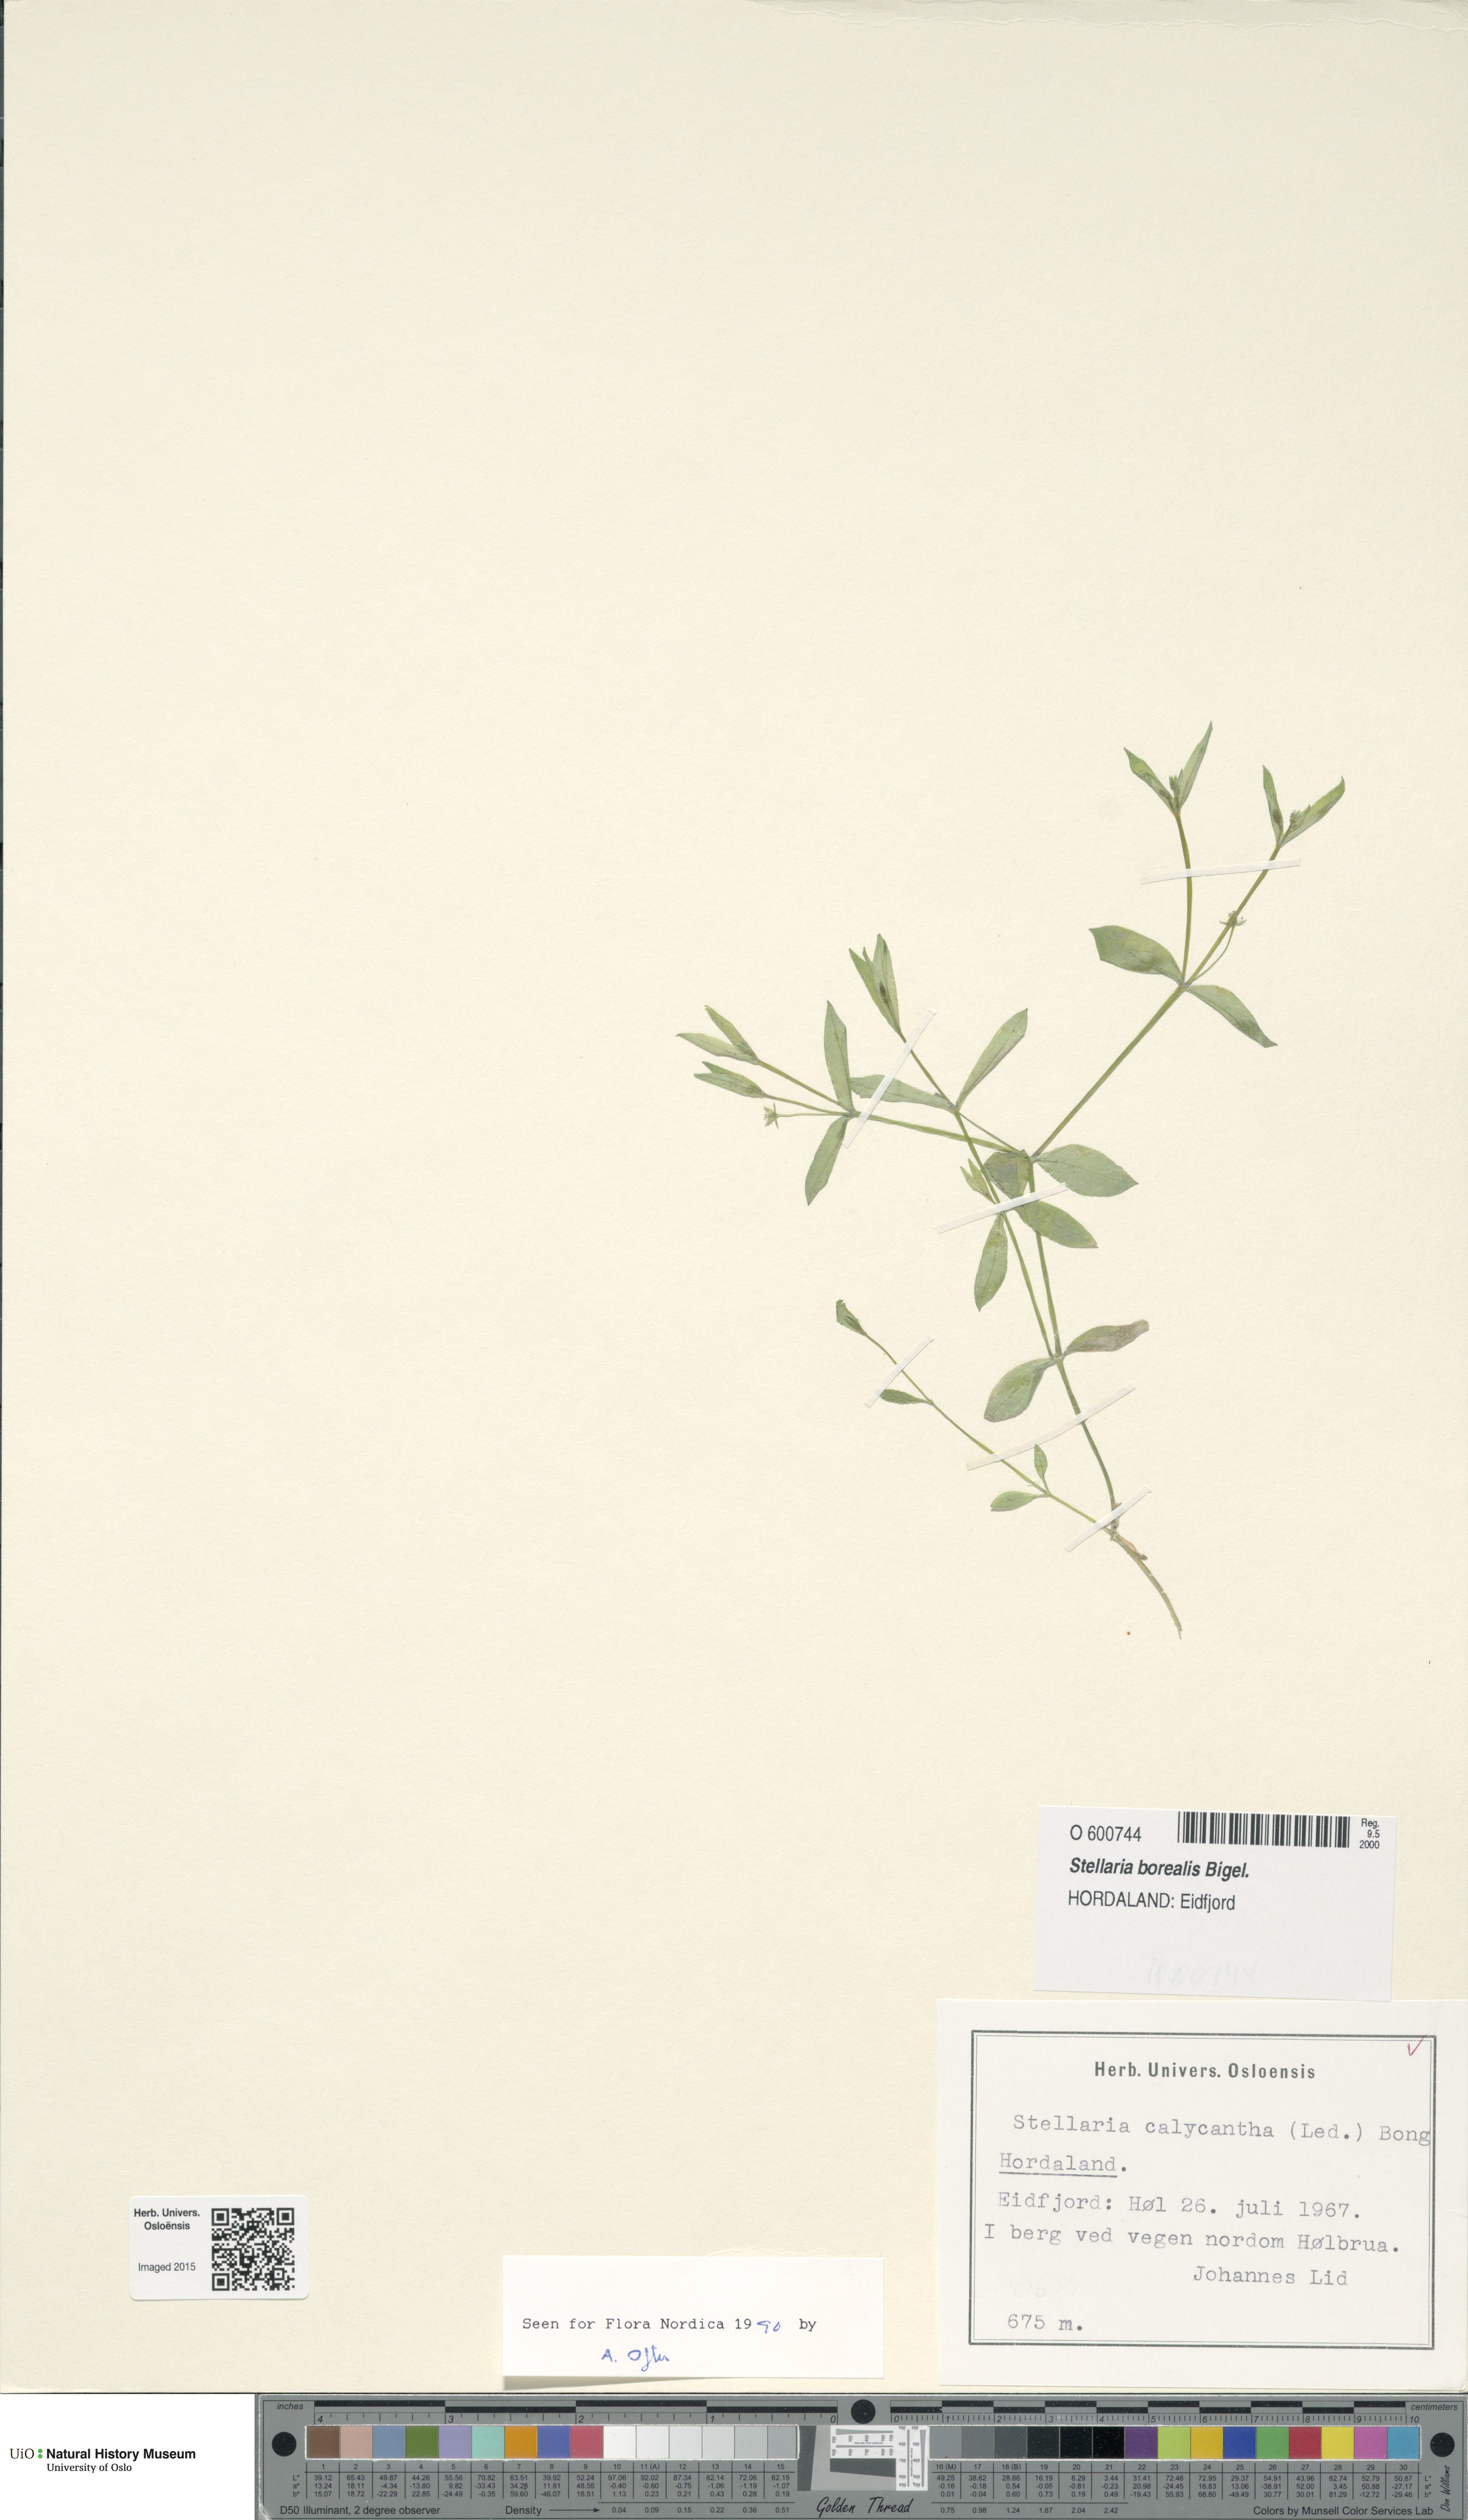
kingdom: Plantae
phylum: Tracheophyta
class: Magnoliopsida
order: Caryophyllales
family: Caryophyllaceae
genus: Stellaria
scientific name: Stellaria borealis
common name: Boreal starwort
